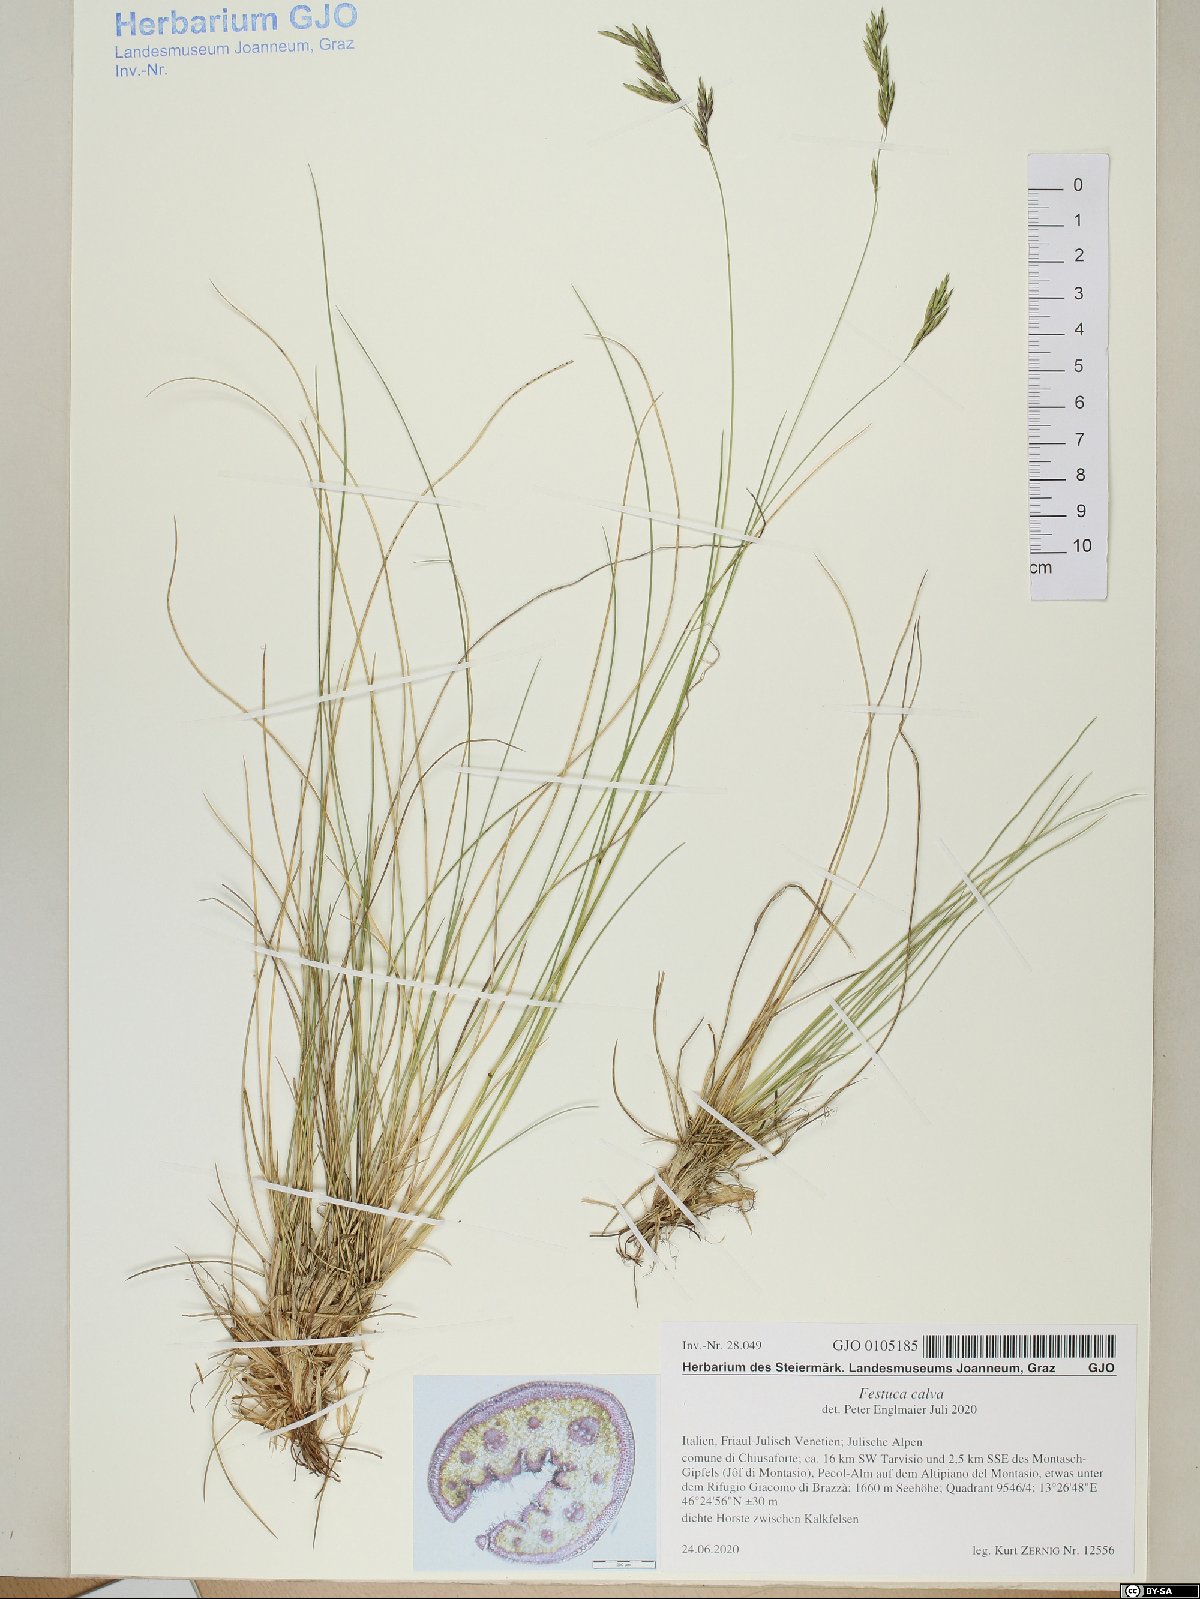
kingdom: Plantae
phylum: Tracheophyta
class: Liliopsida
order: Poales
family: Poaceae
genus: Festuca
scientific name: Festuca calva
